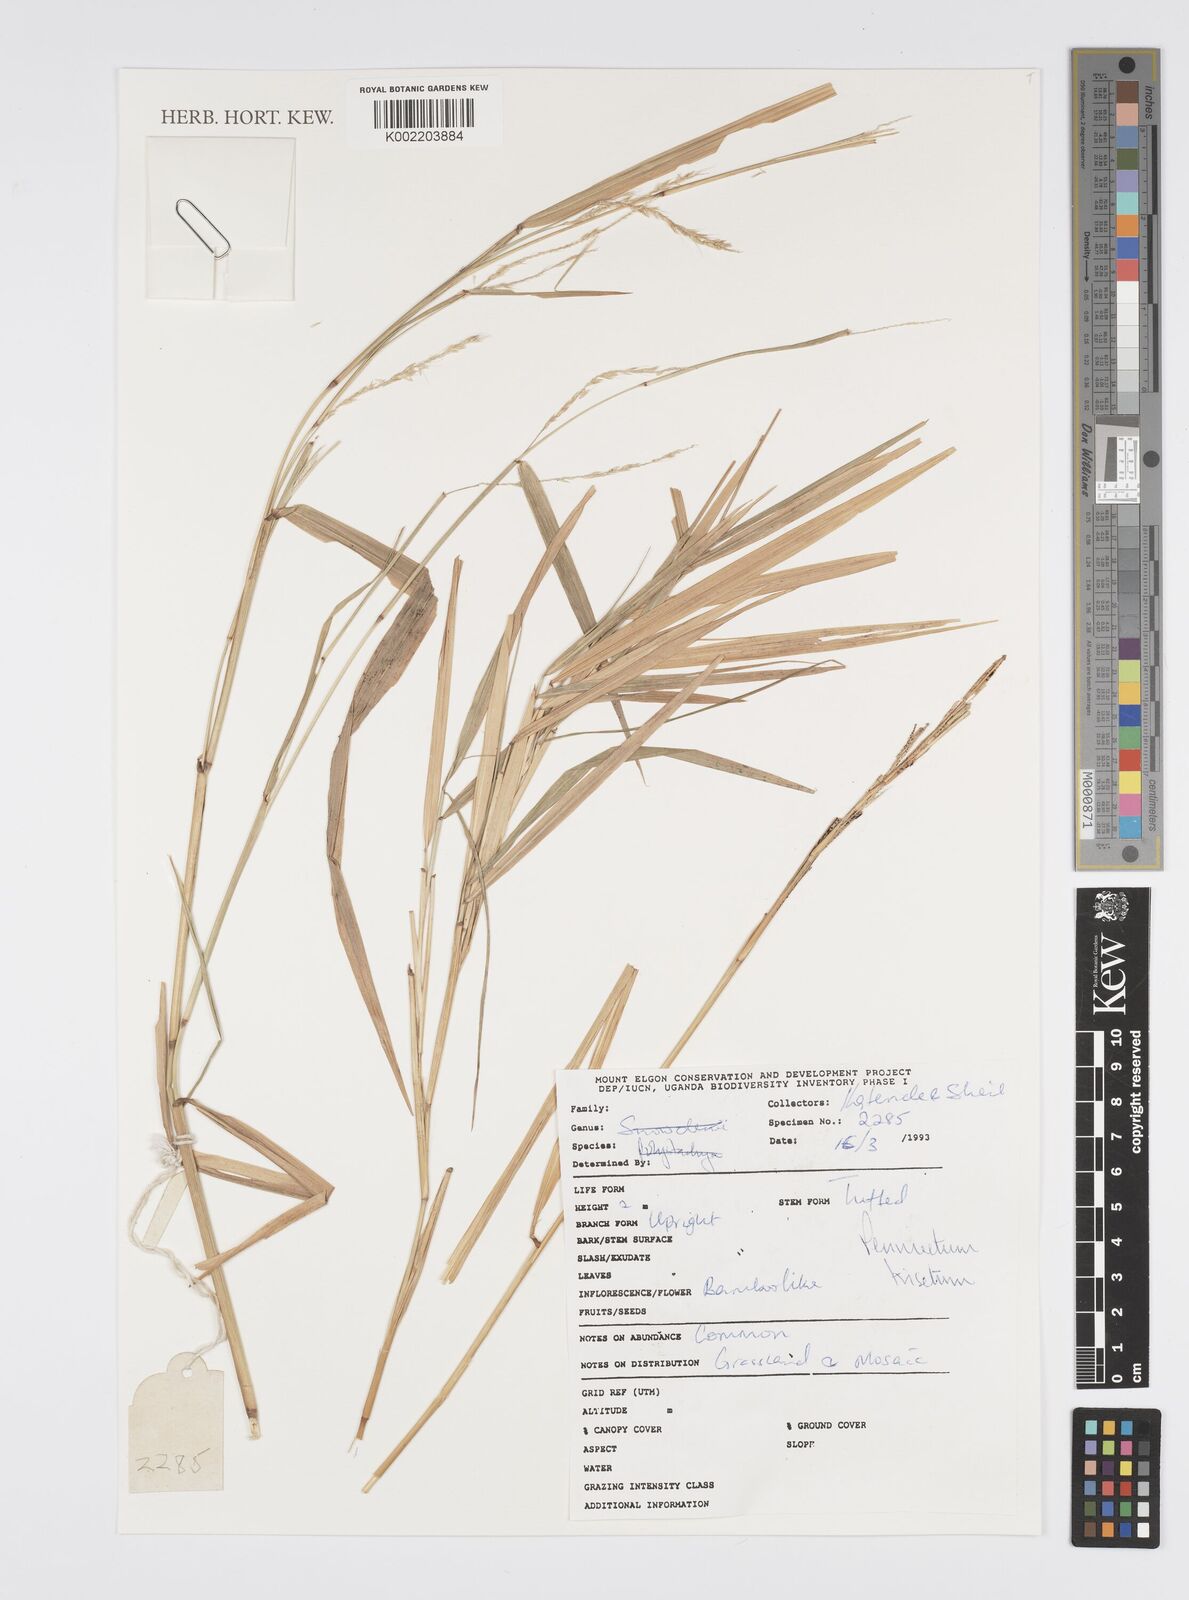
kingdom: Plantae
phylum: Tracheophyta
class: Liliopsida
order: Poales
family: Poaceae
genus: Cenchrus
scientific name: Cenchrus trisetus
